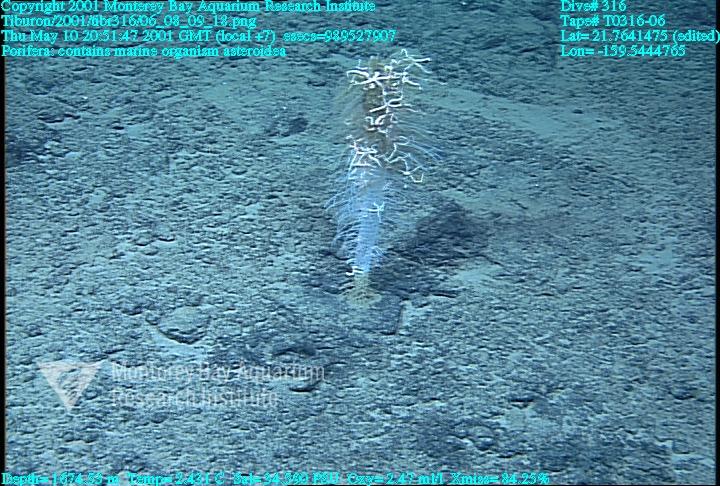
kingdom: Animalia
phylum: Porifera
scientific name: Porifera
